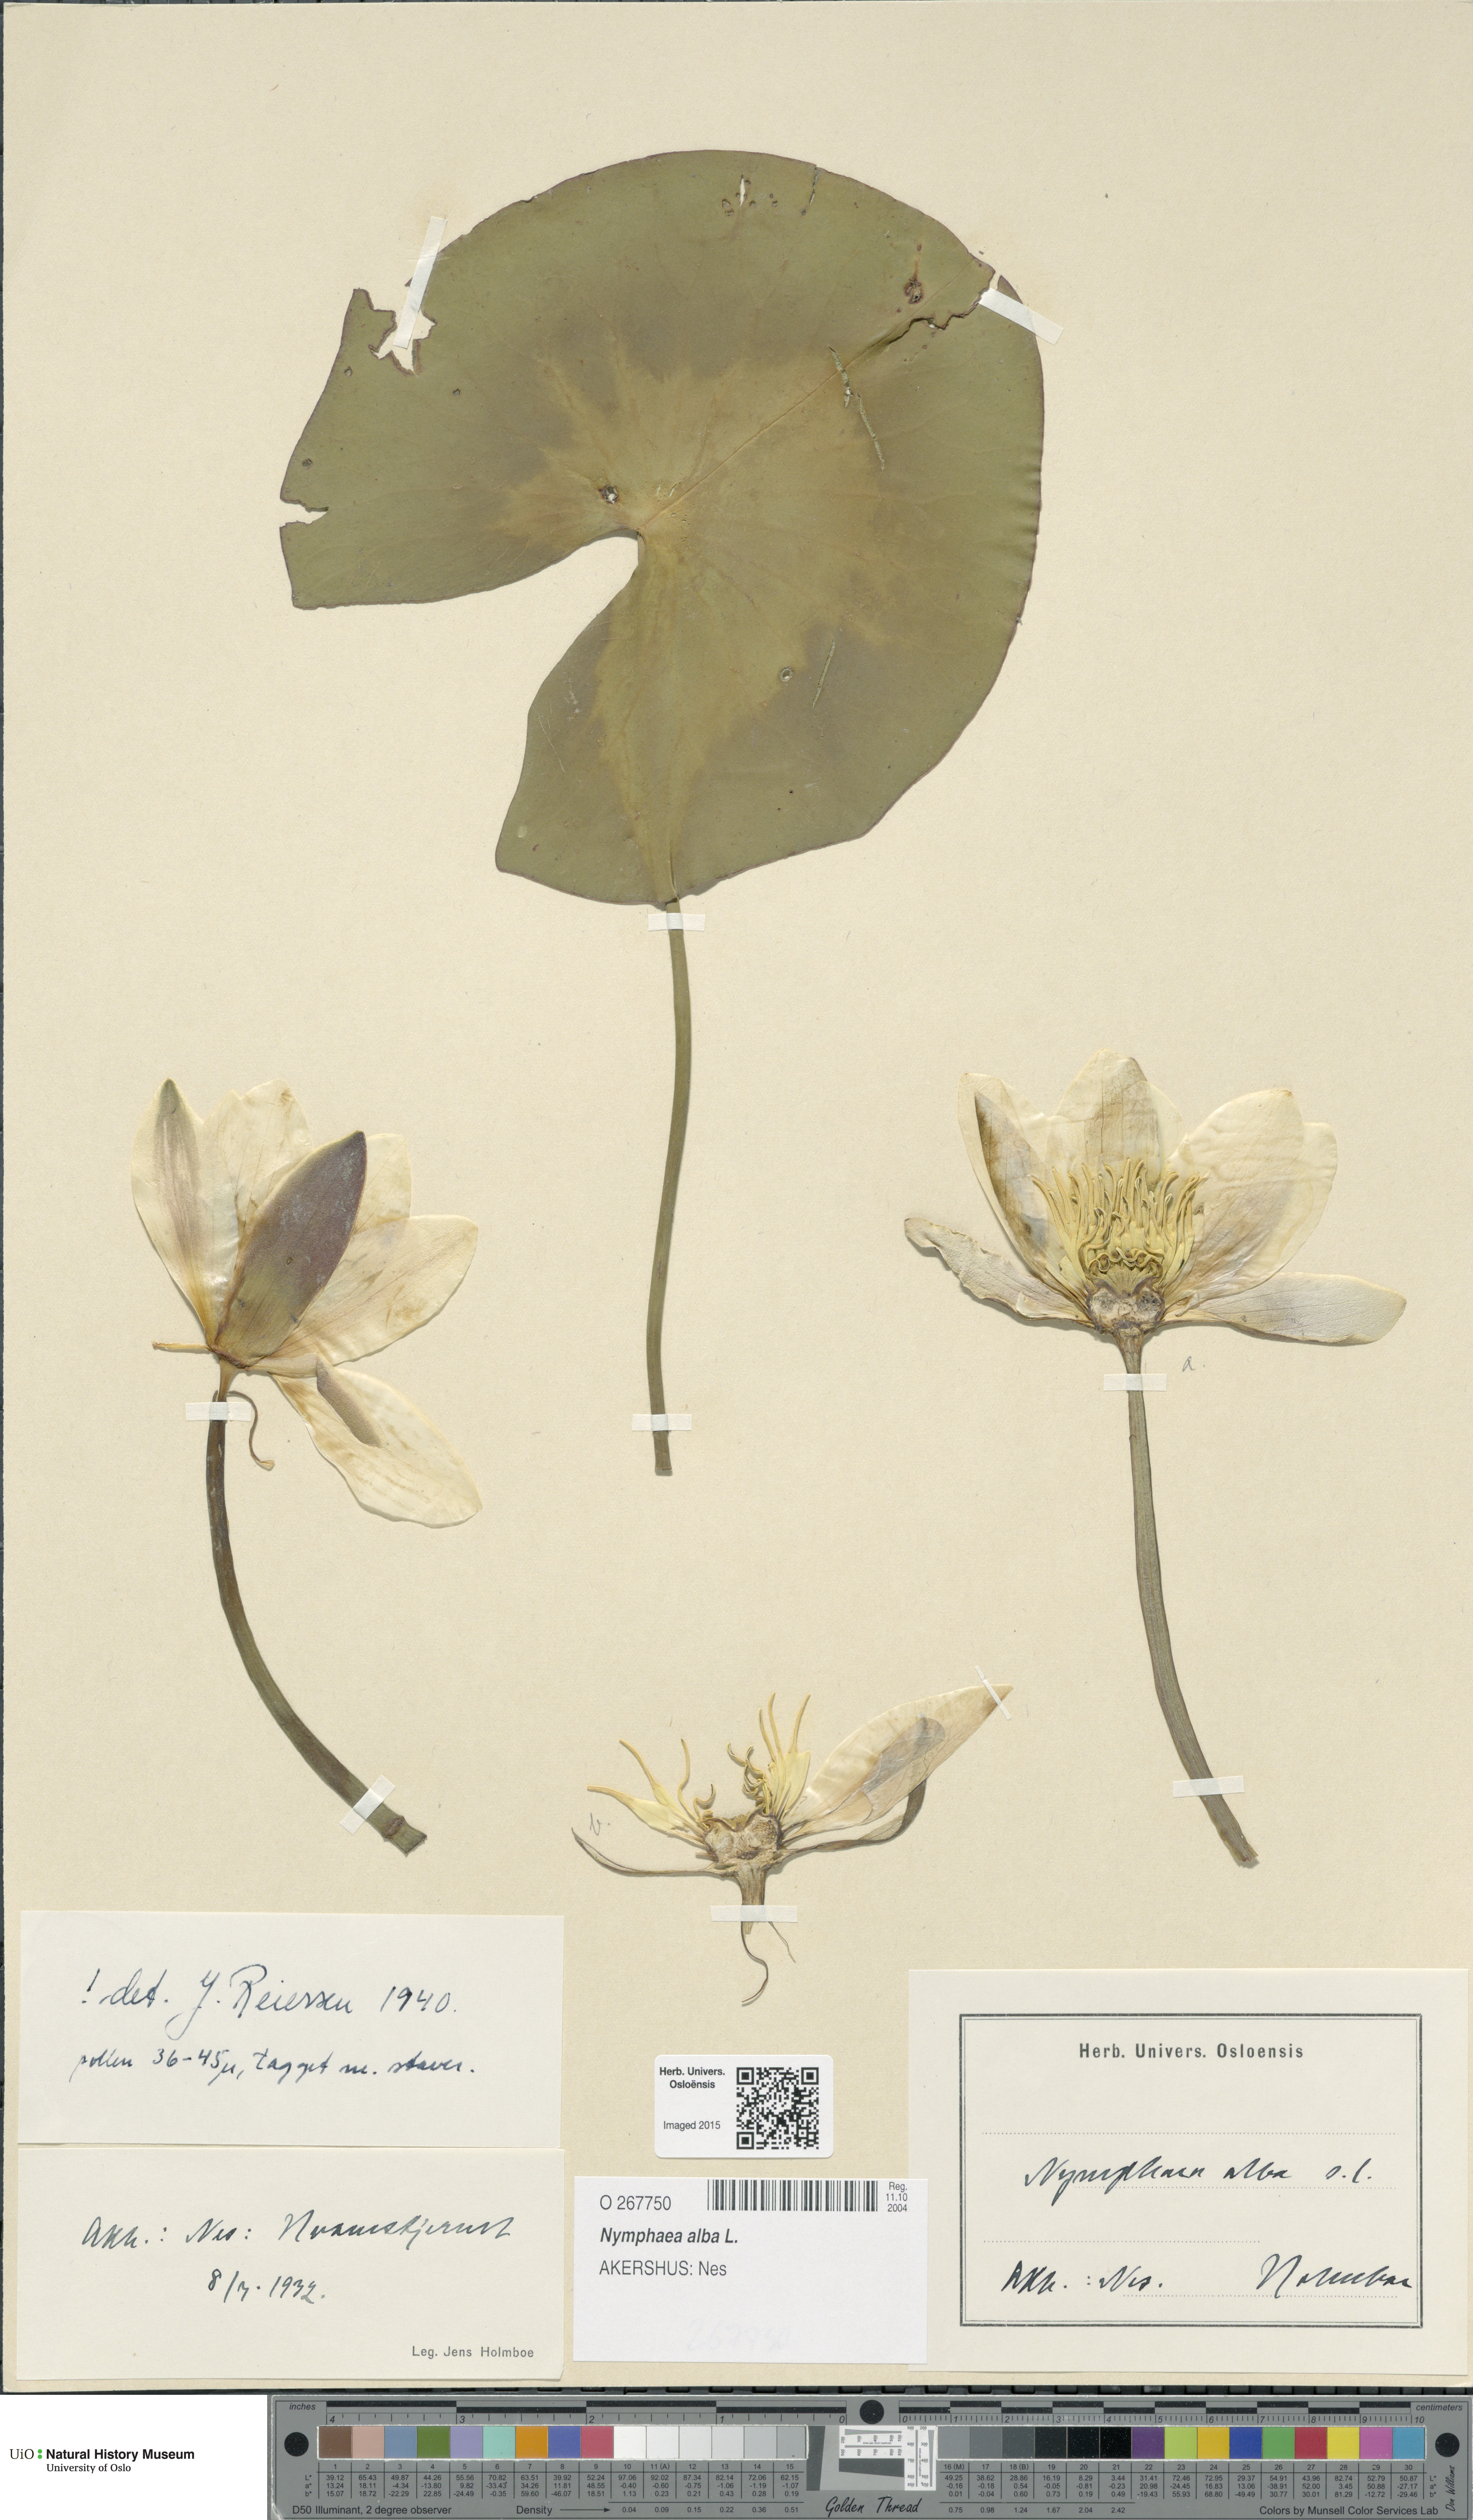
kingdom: Plantae
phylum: Tracheophyta
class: Magnoliopsida
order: Nymphaeales
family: Nymphaeaceae
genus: Nymphaea
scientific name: Nymphaea alba
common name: White water-lily
